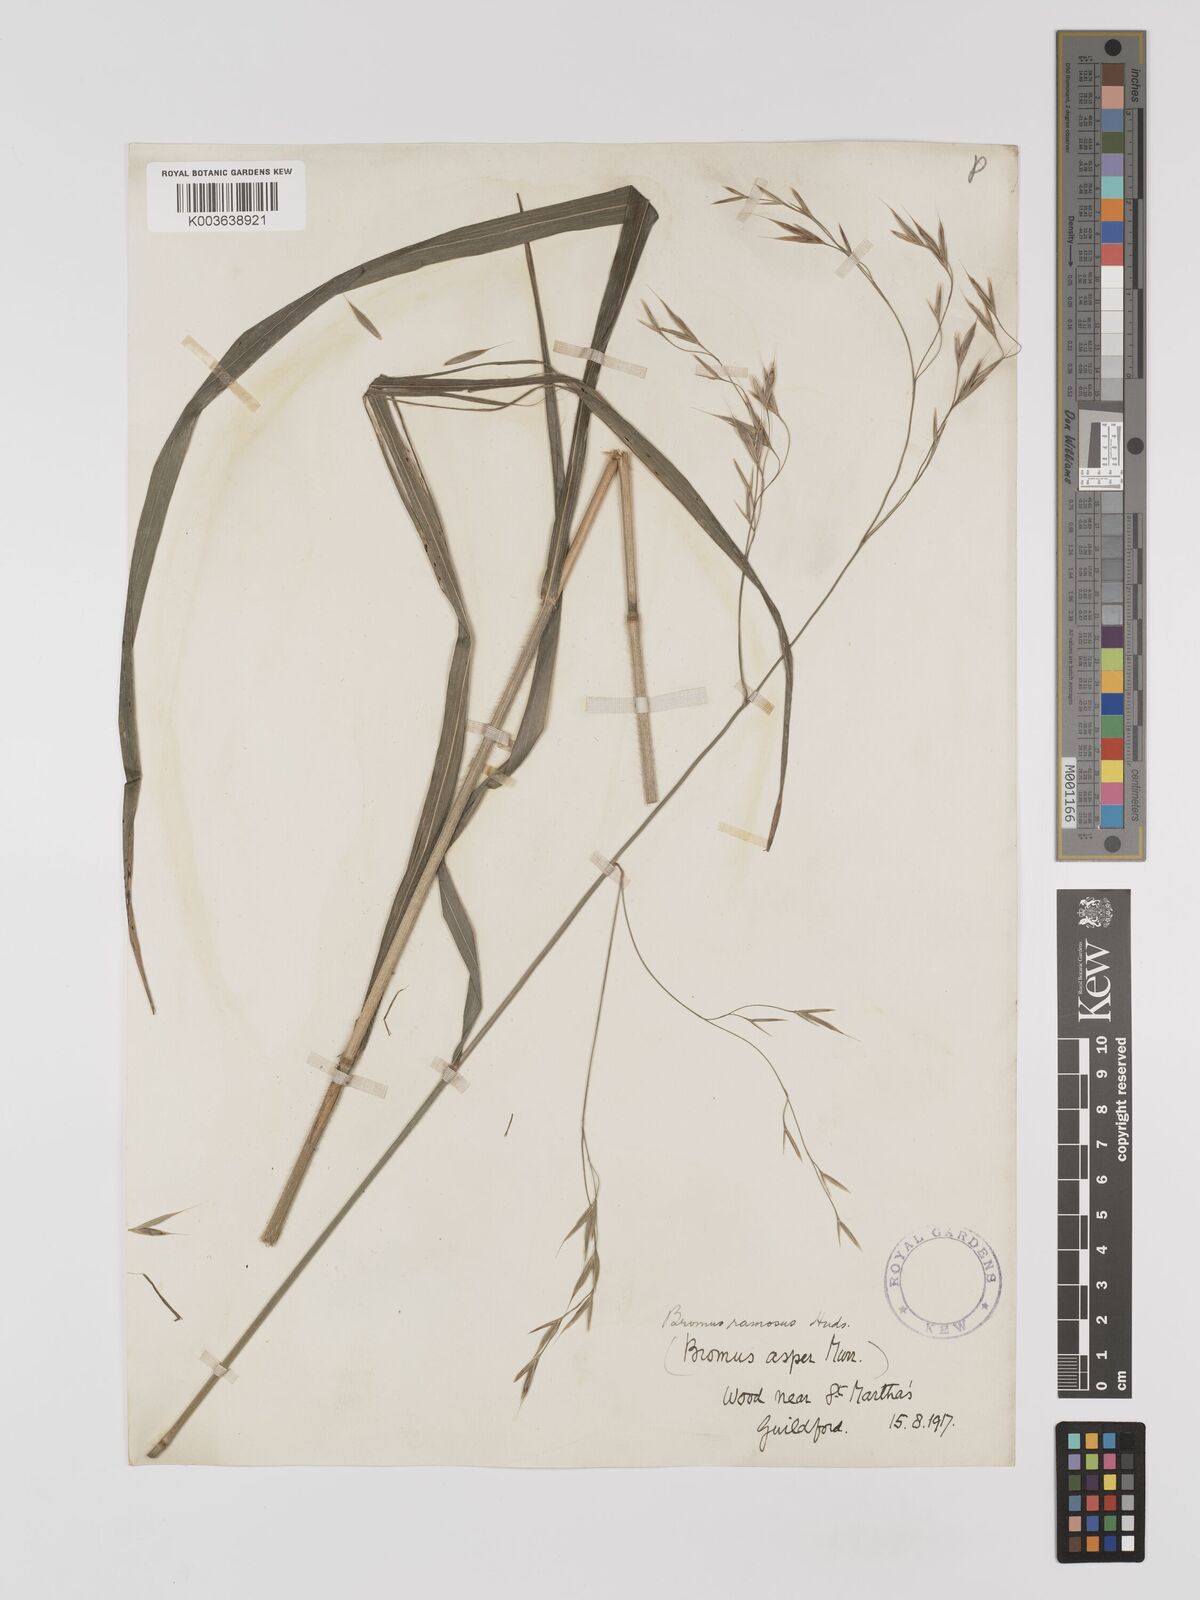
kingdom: Plantae
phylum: Tracheophyta
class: Liliopsida
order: Poales
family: Poaceae
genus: Bromus
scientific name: Bromus ramosus
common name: Hairy brome
